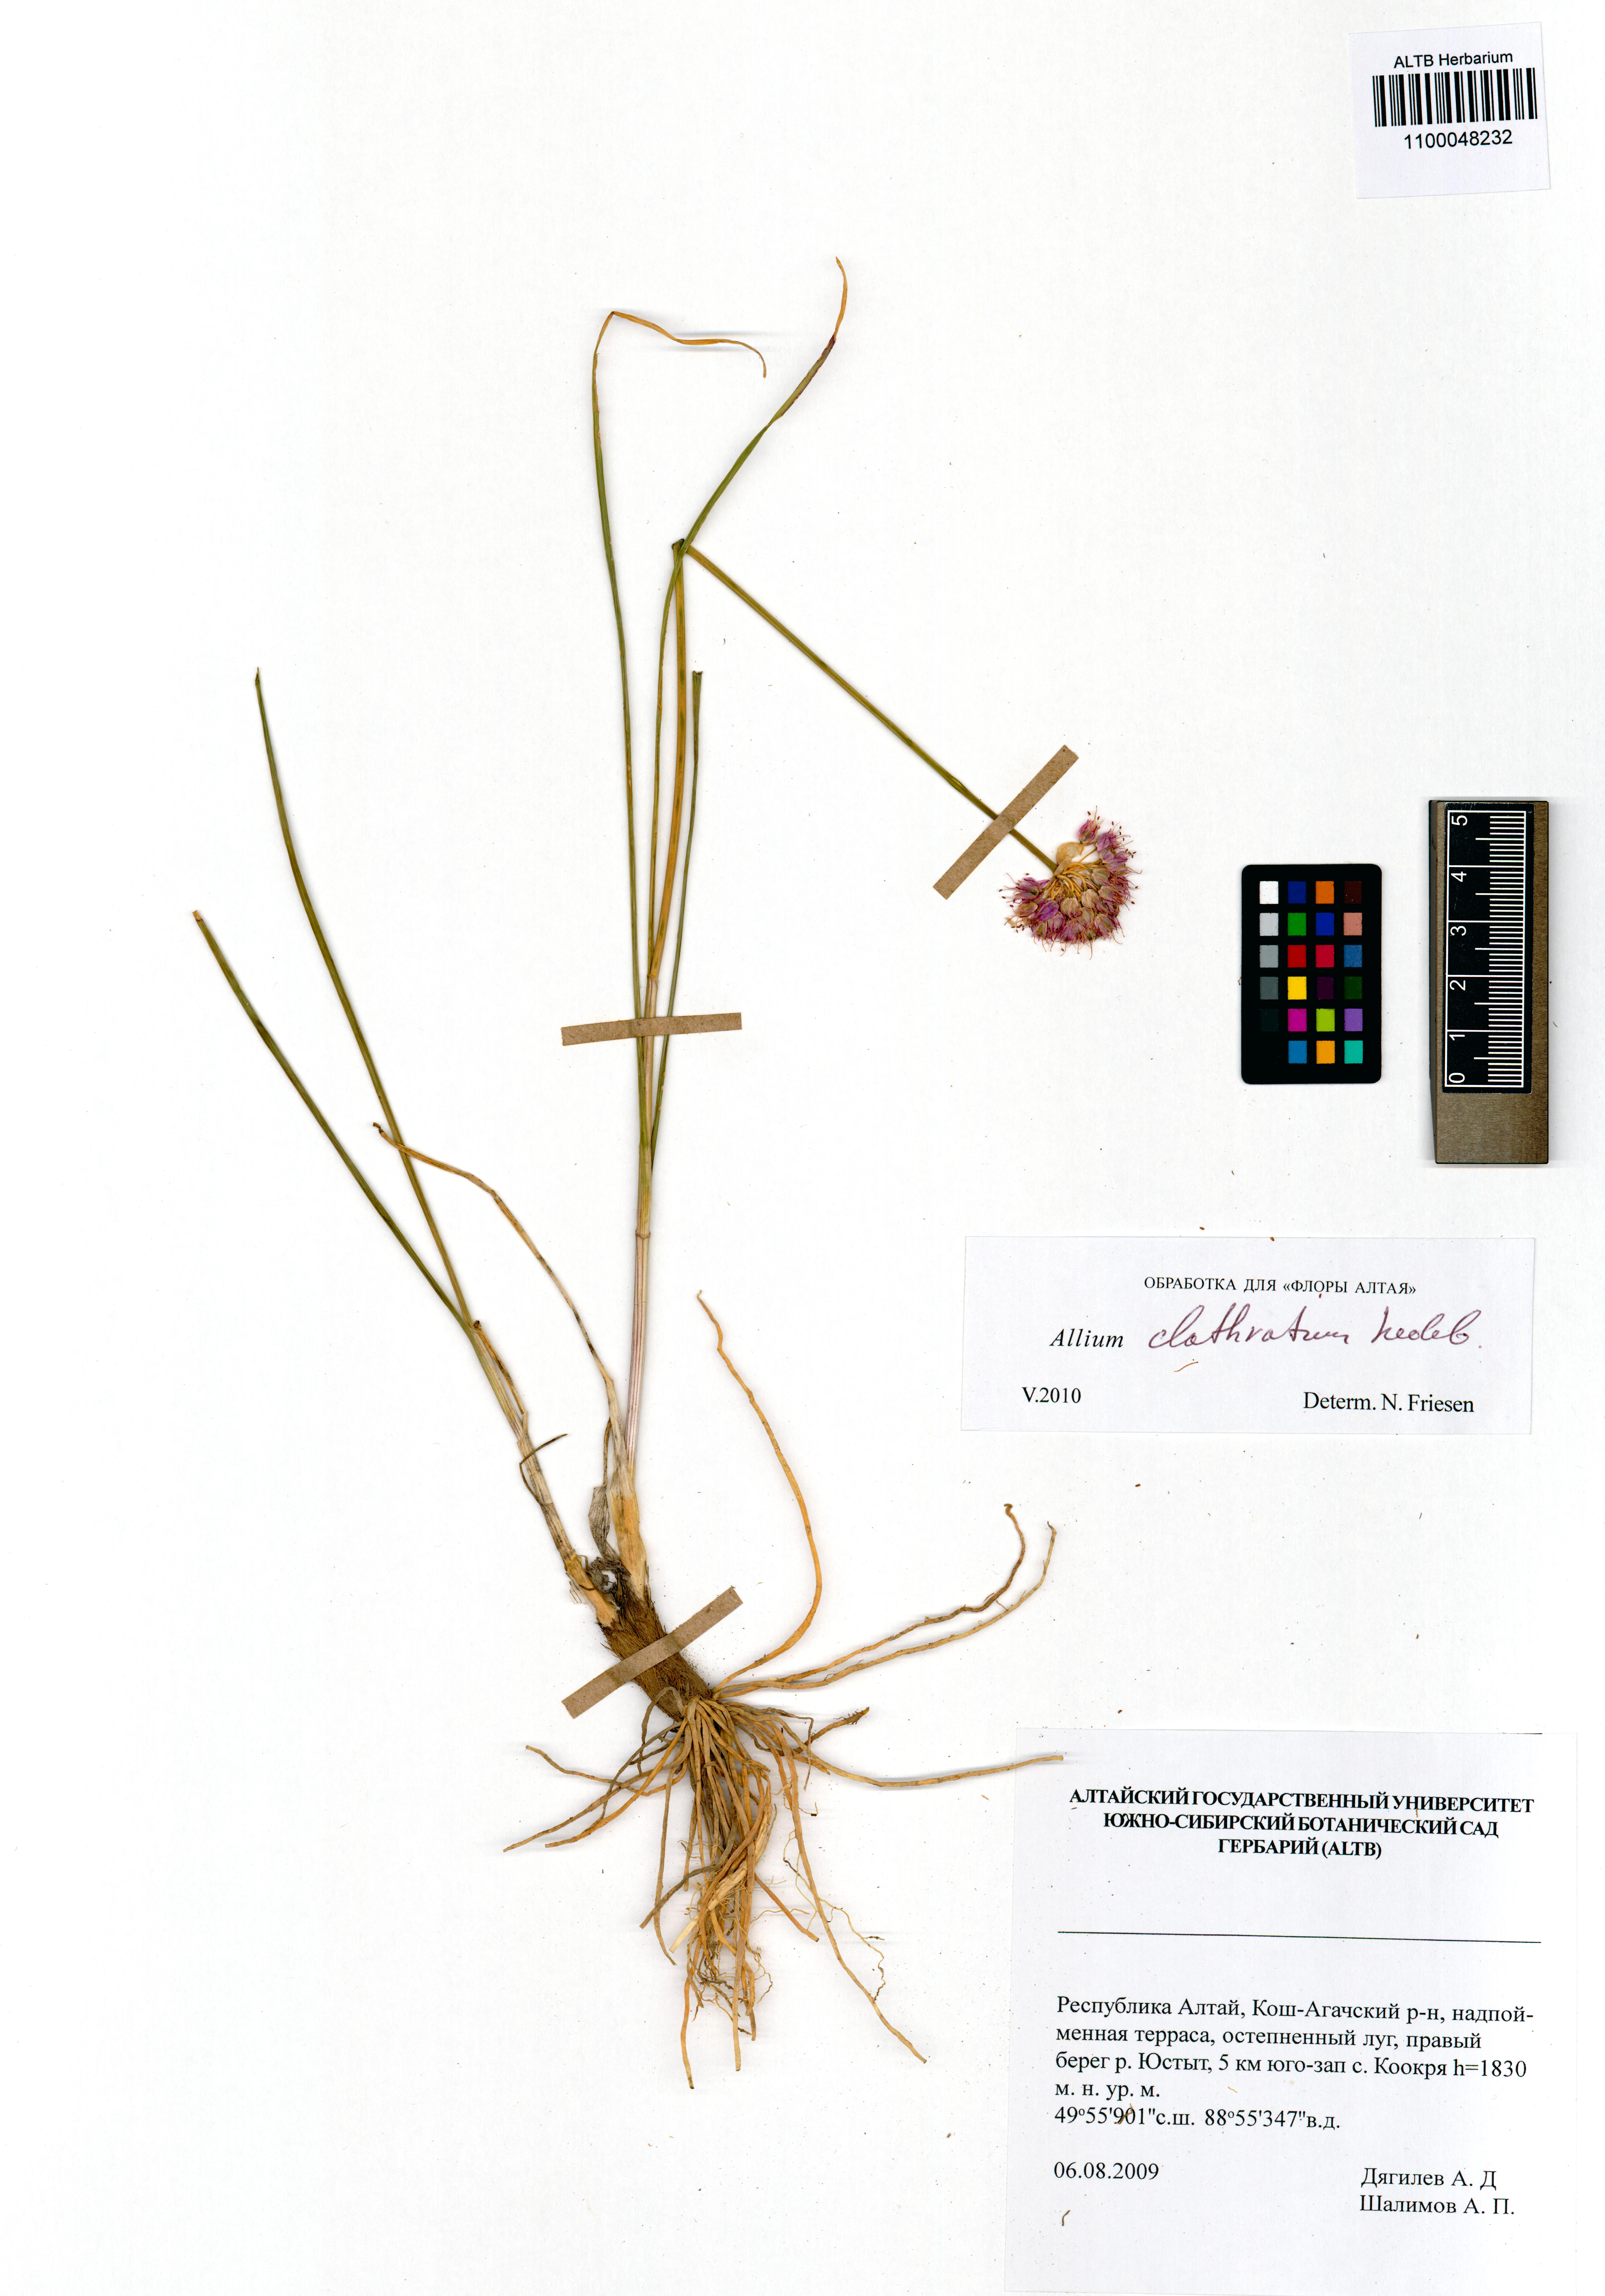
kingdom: Plantae
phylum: Tracheophyta
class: Liliopsida
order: Asparagales
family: Amaryllidaceae
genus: Allium
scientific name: Allium clathratum
